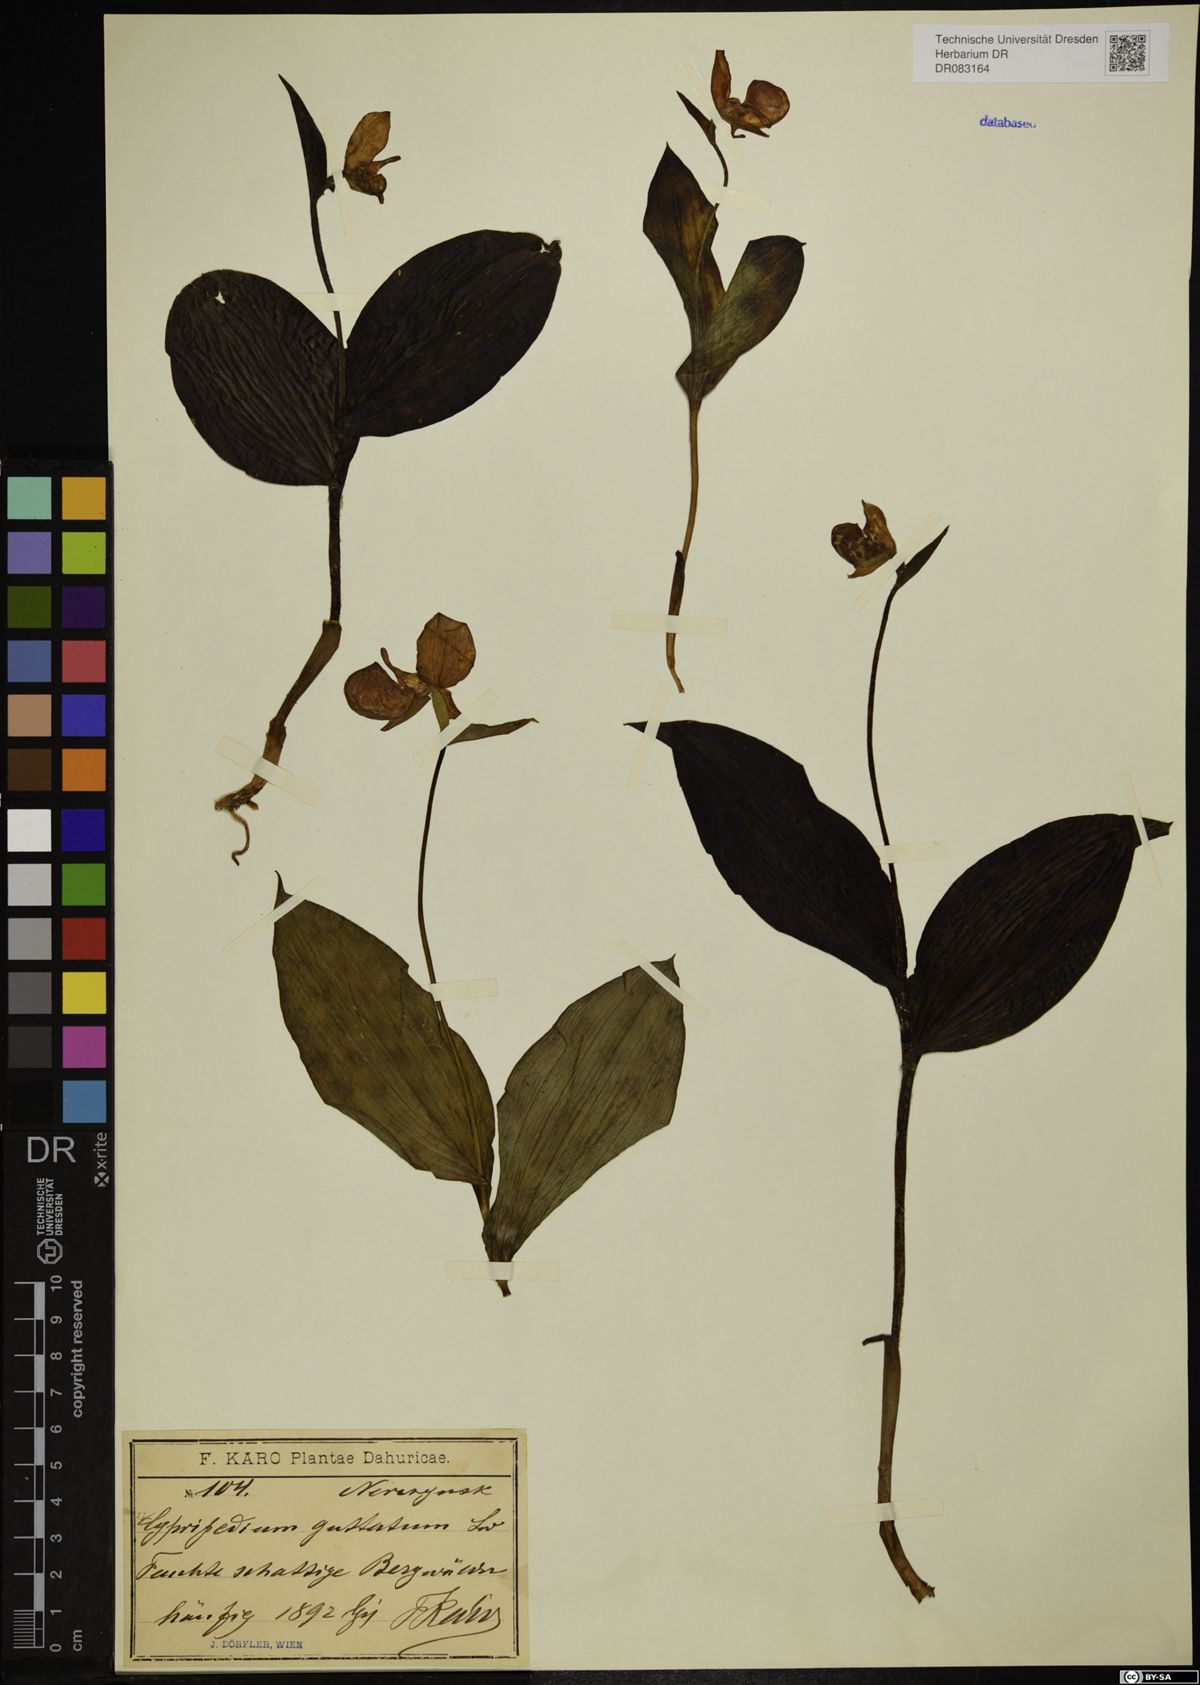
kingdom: Plantae
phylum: Tracheophyta
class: Liliopsida
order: Asparagales
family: Orchidaceae
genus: Cypripedium
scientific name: Cypripedium guttatum
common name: Pink lady slipper
